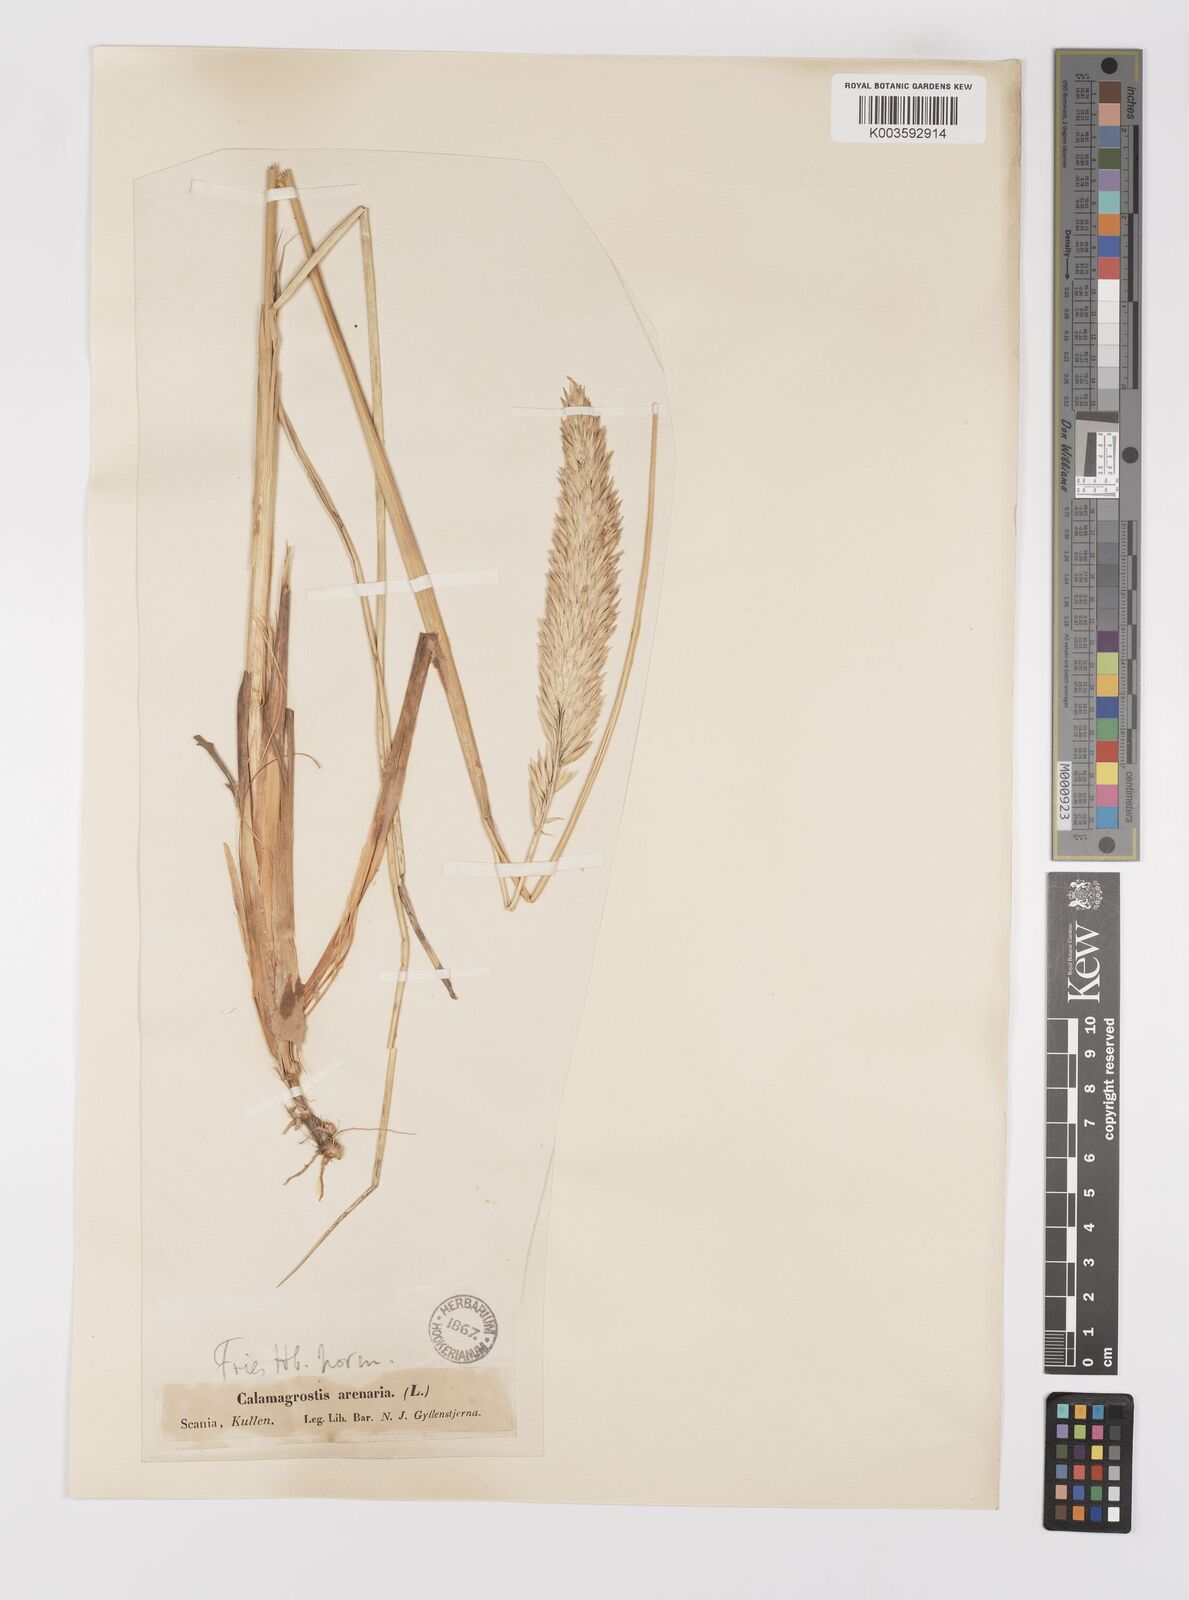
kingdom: Plantae
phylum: Tracheophyta
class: Liliopsida
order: Poales
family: Poaceae
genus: Calamagrostis
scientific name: Calamagrostis arenaria
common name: European beachgrass
